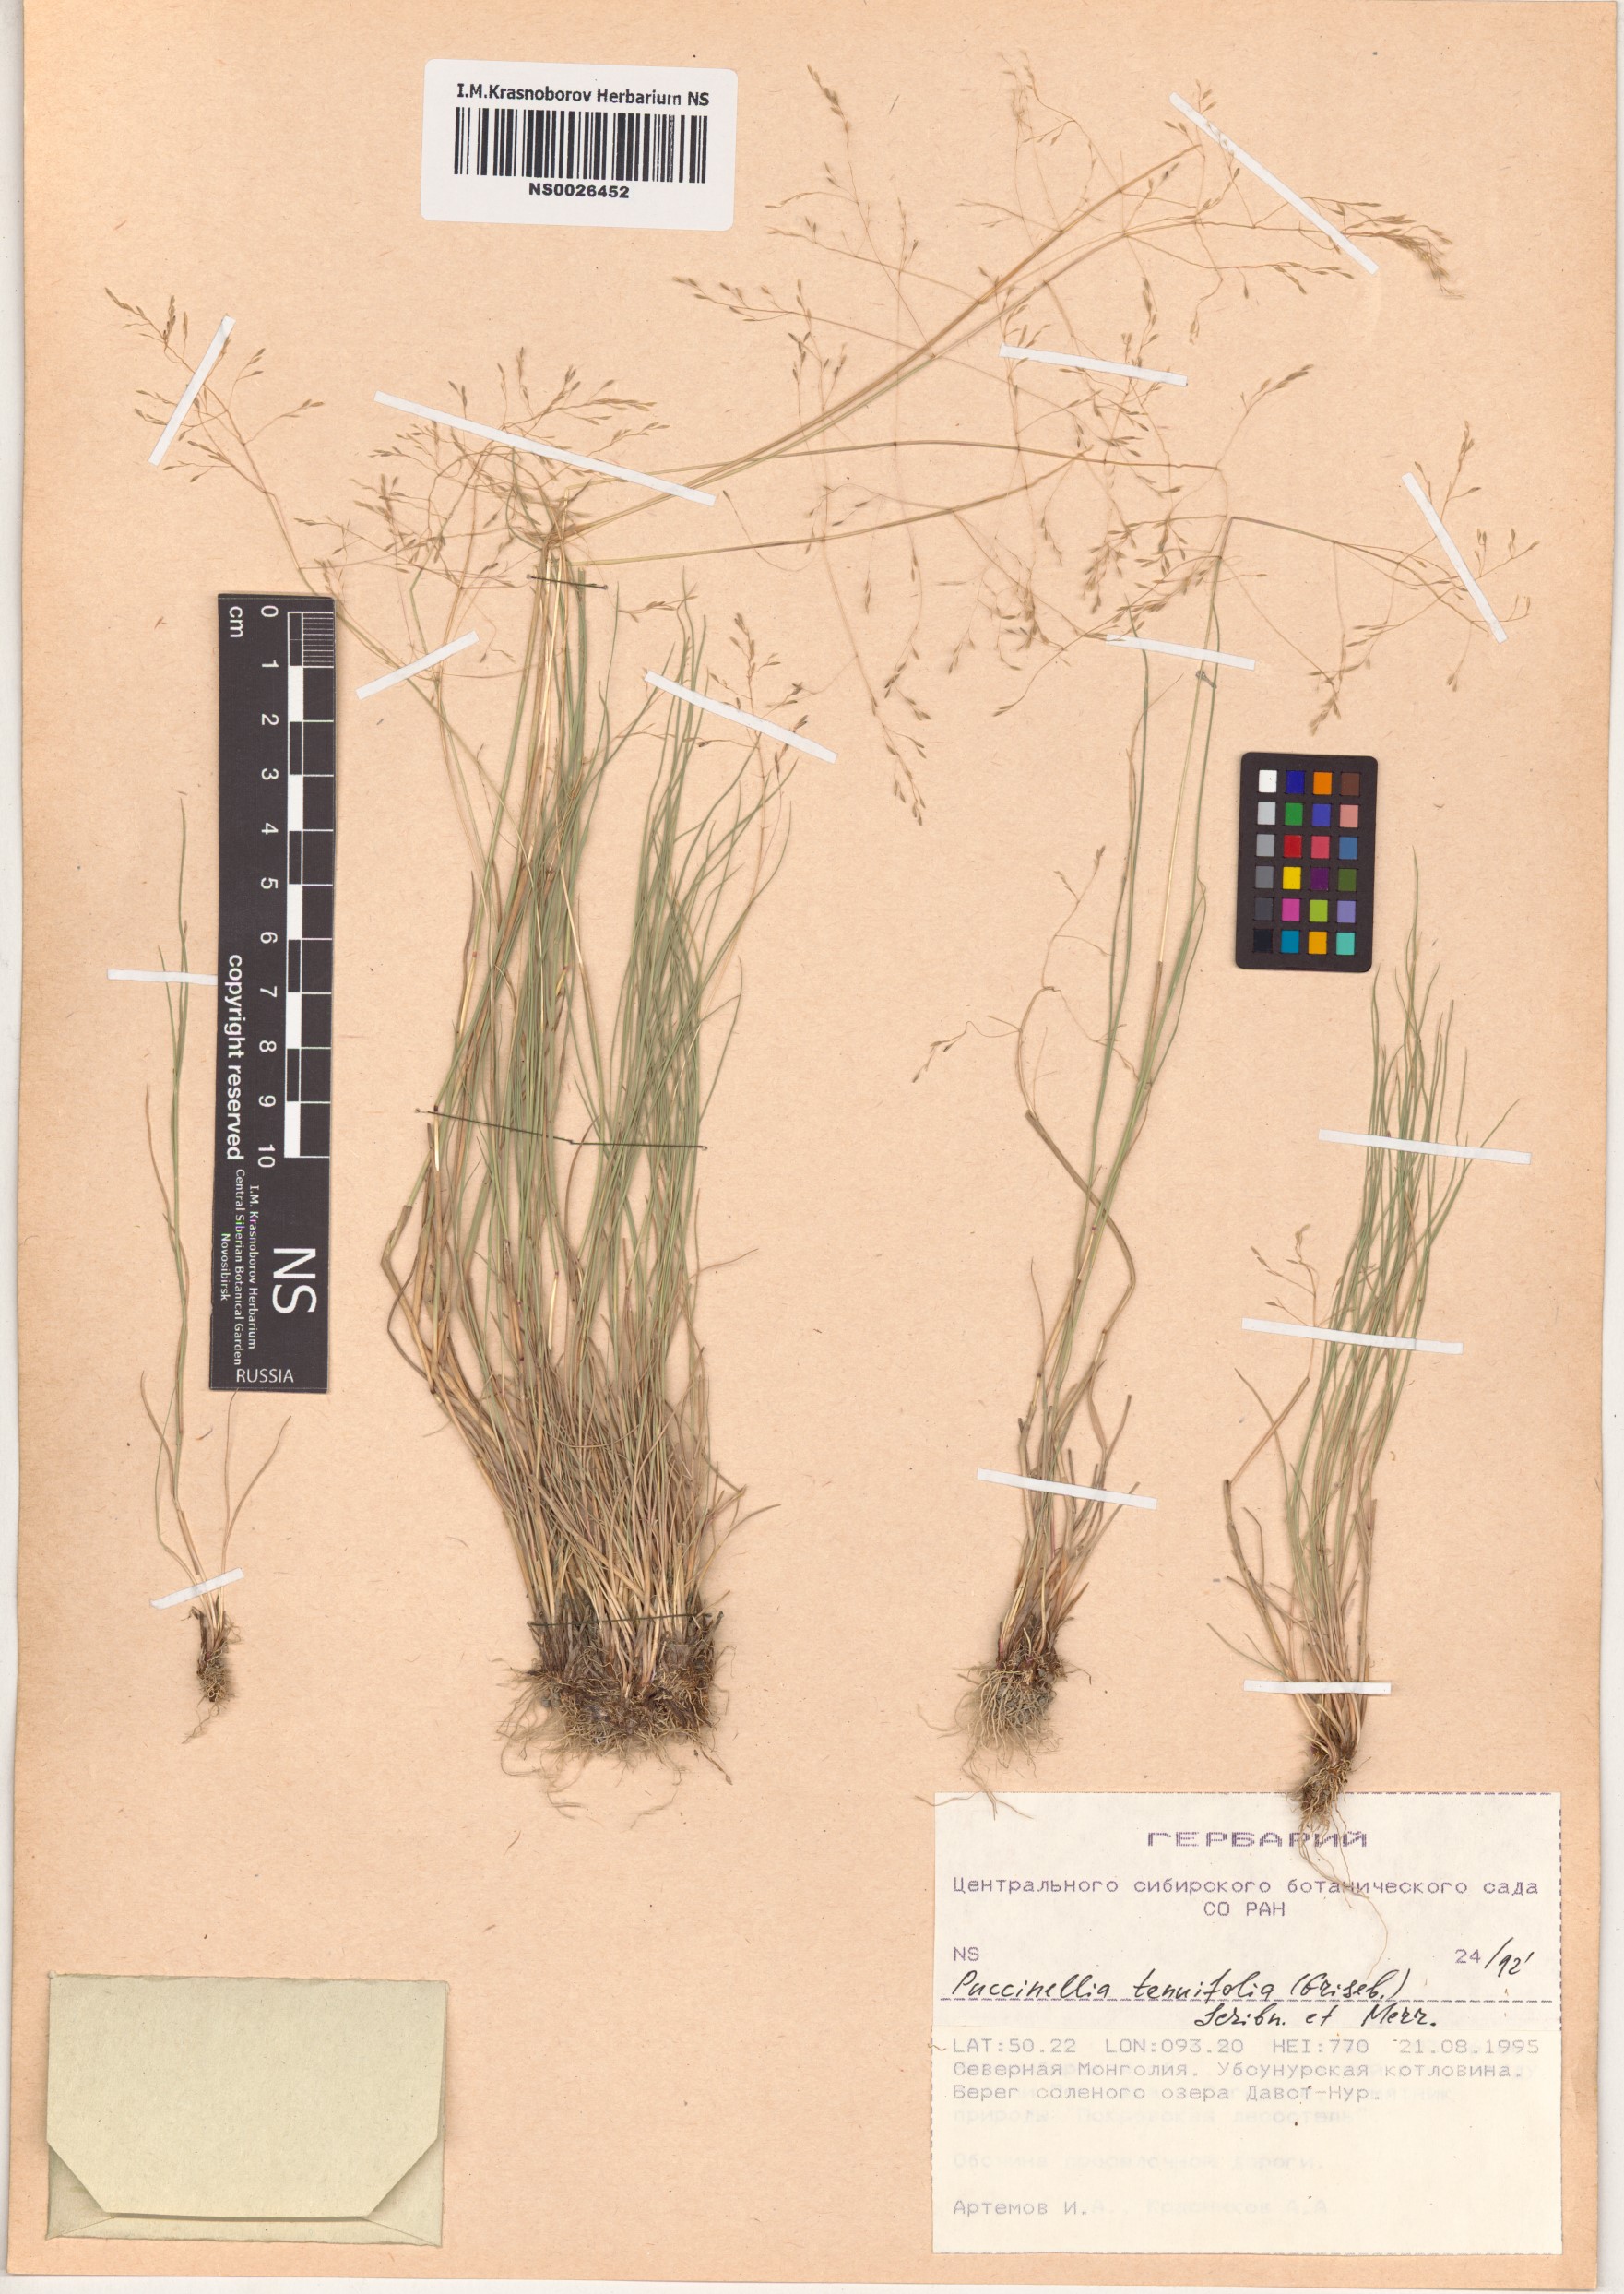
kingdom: Plantae
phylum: Tracheophyta
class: Liliopsida
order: Poales
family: Poaceae
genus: Puccinellia
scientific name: Puccinellia tenuiflora
